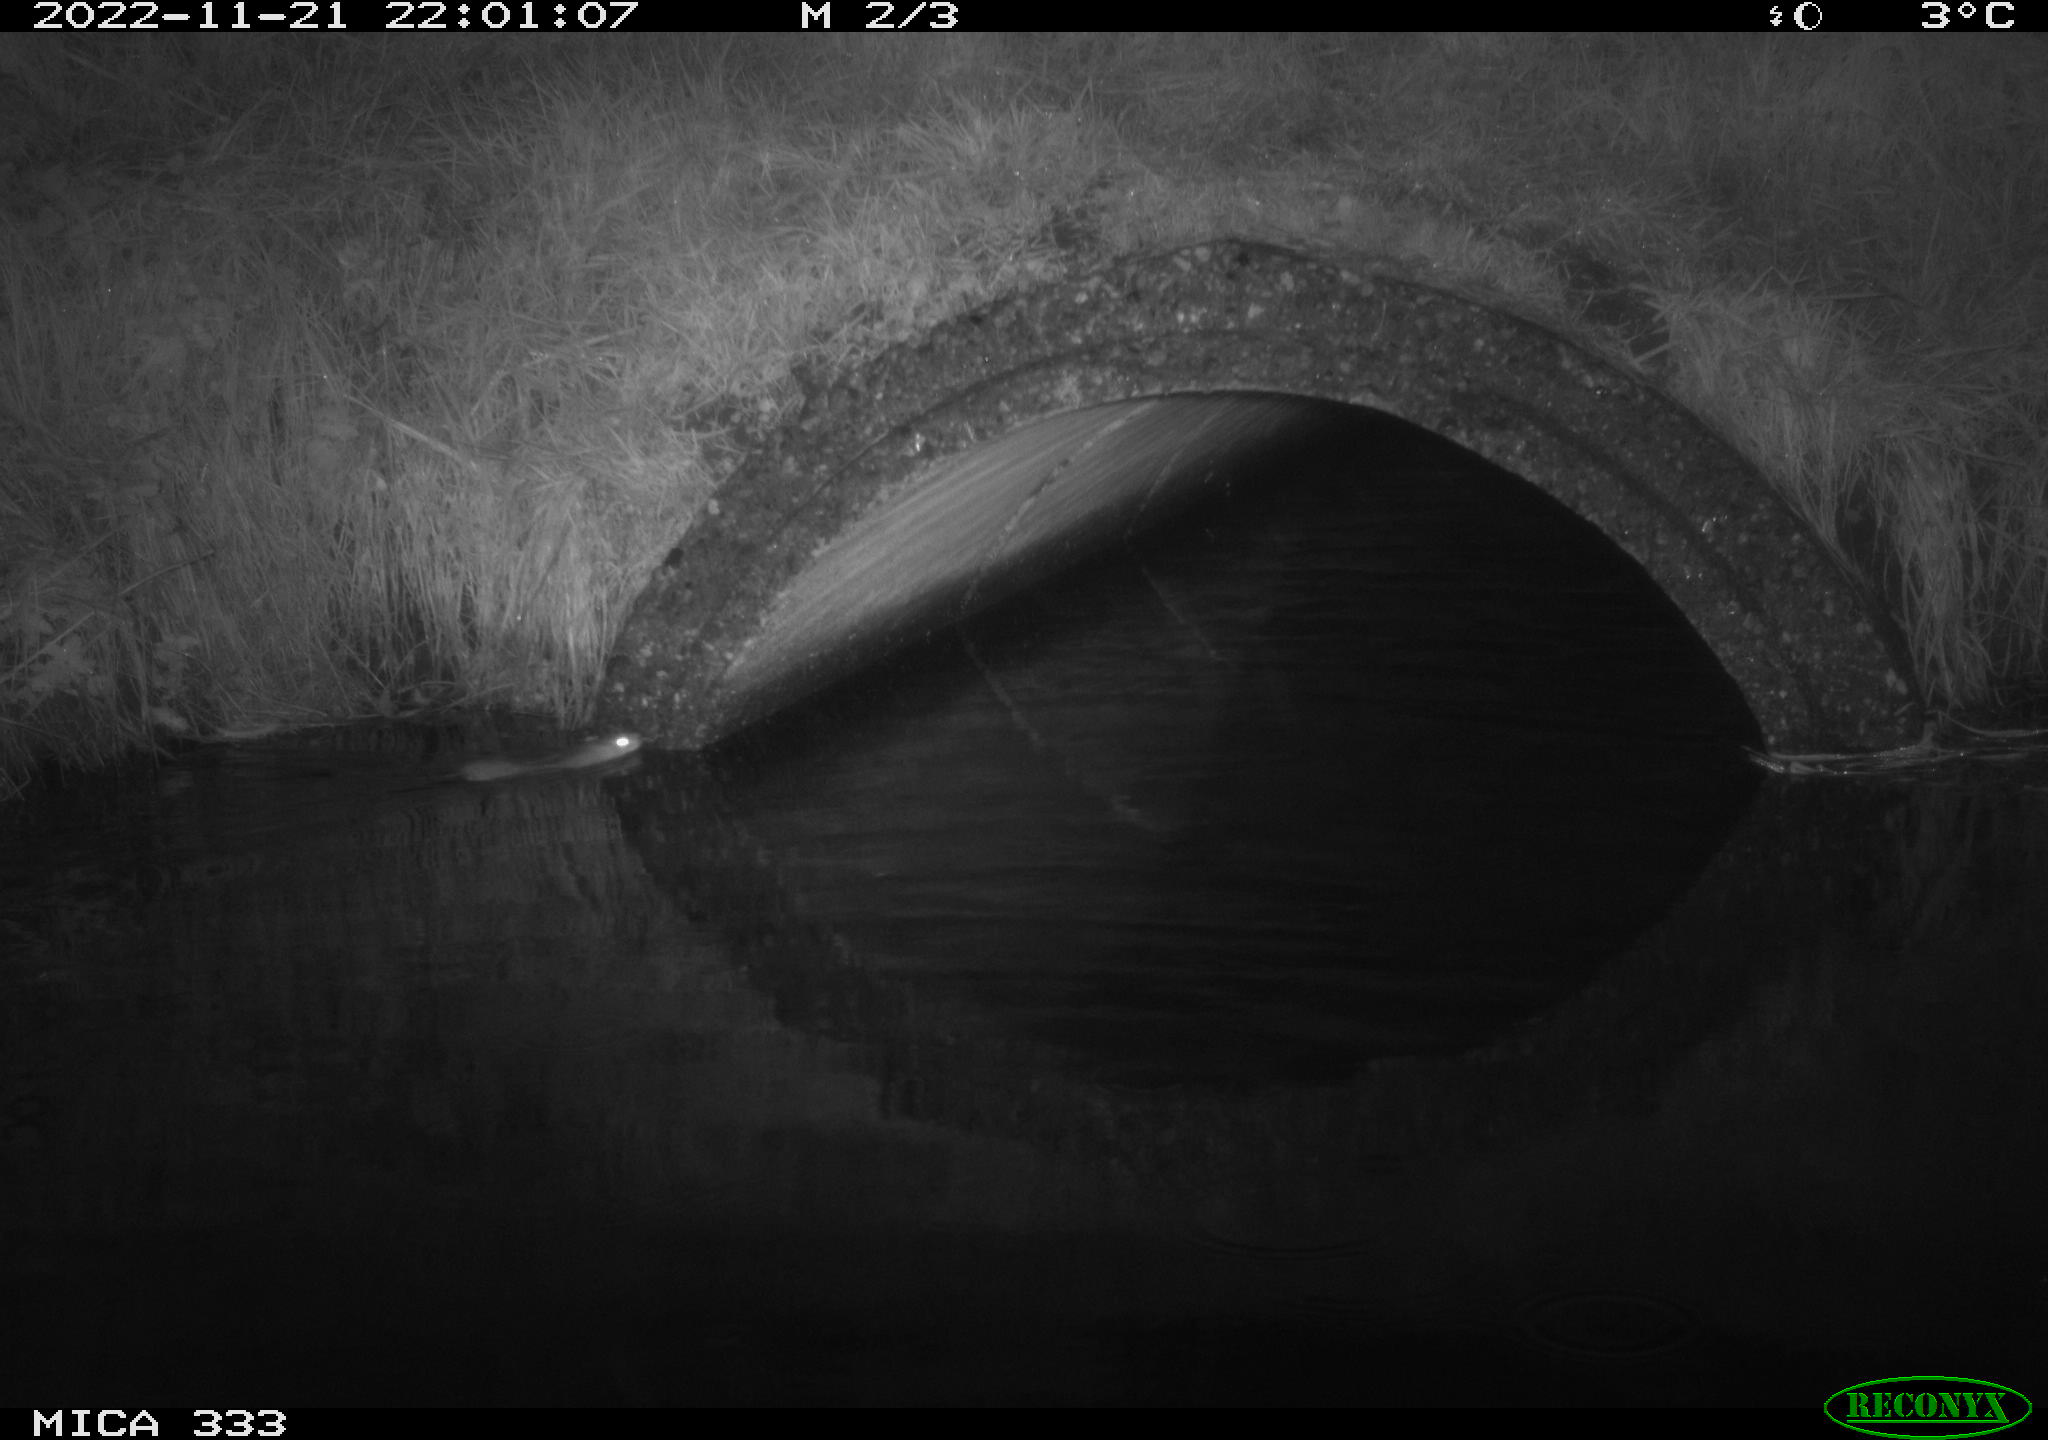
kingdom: Animalia
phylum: Chordata
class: Mammalia
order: Rodentia
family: Muridae
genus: Rattus
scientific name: Rattus norvegicus
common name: Brown rat
